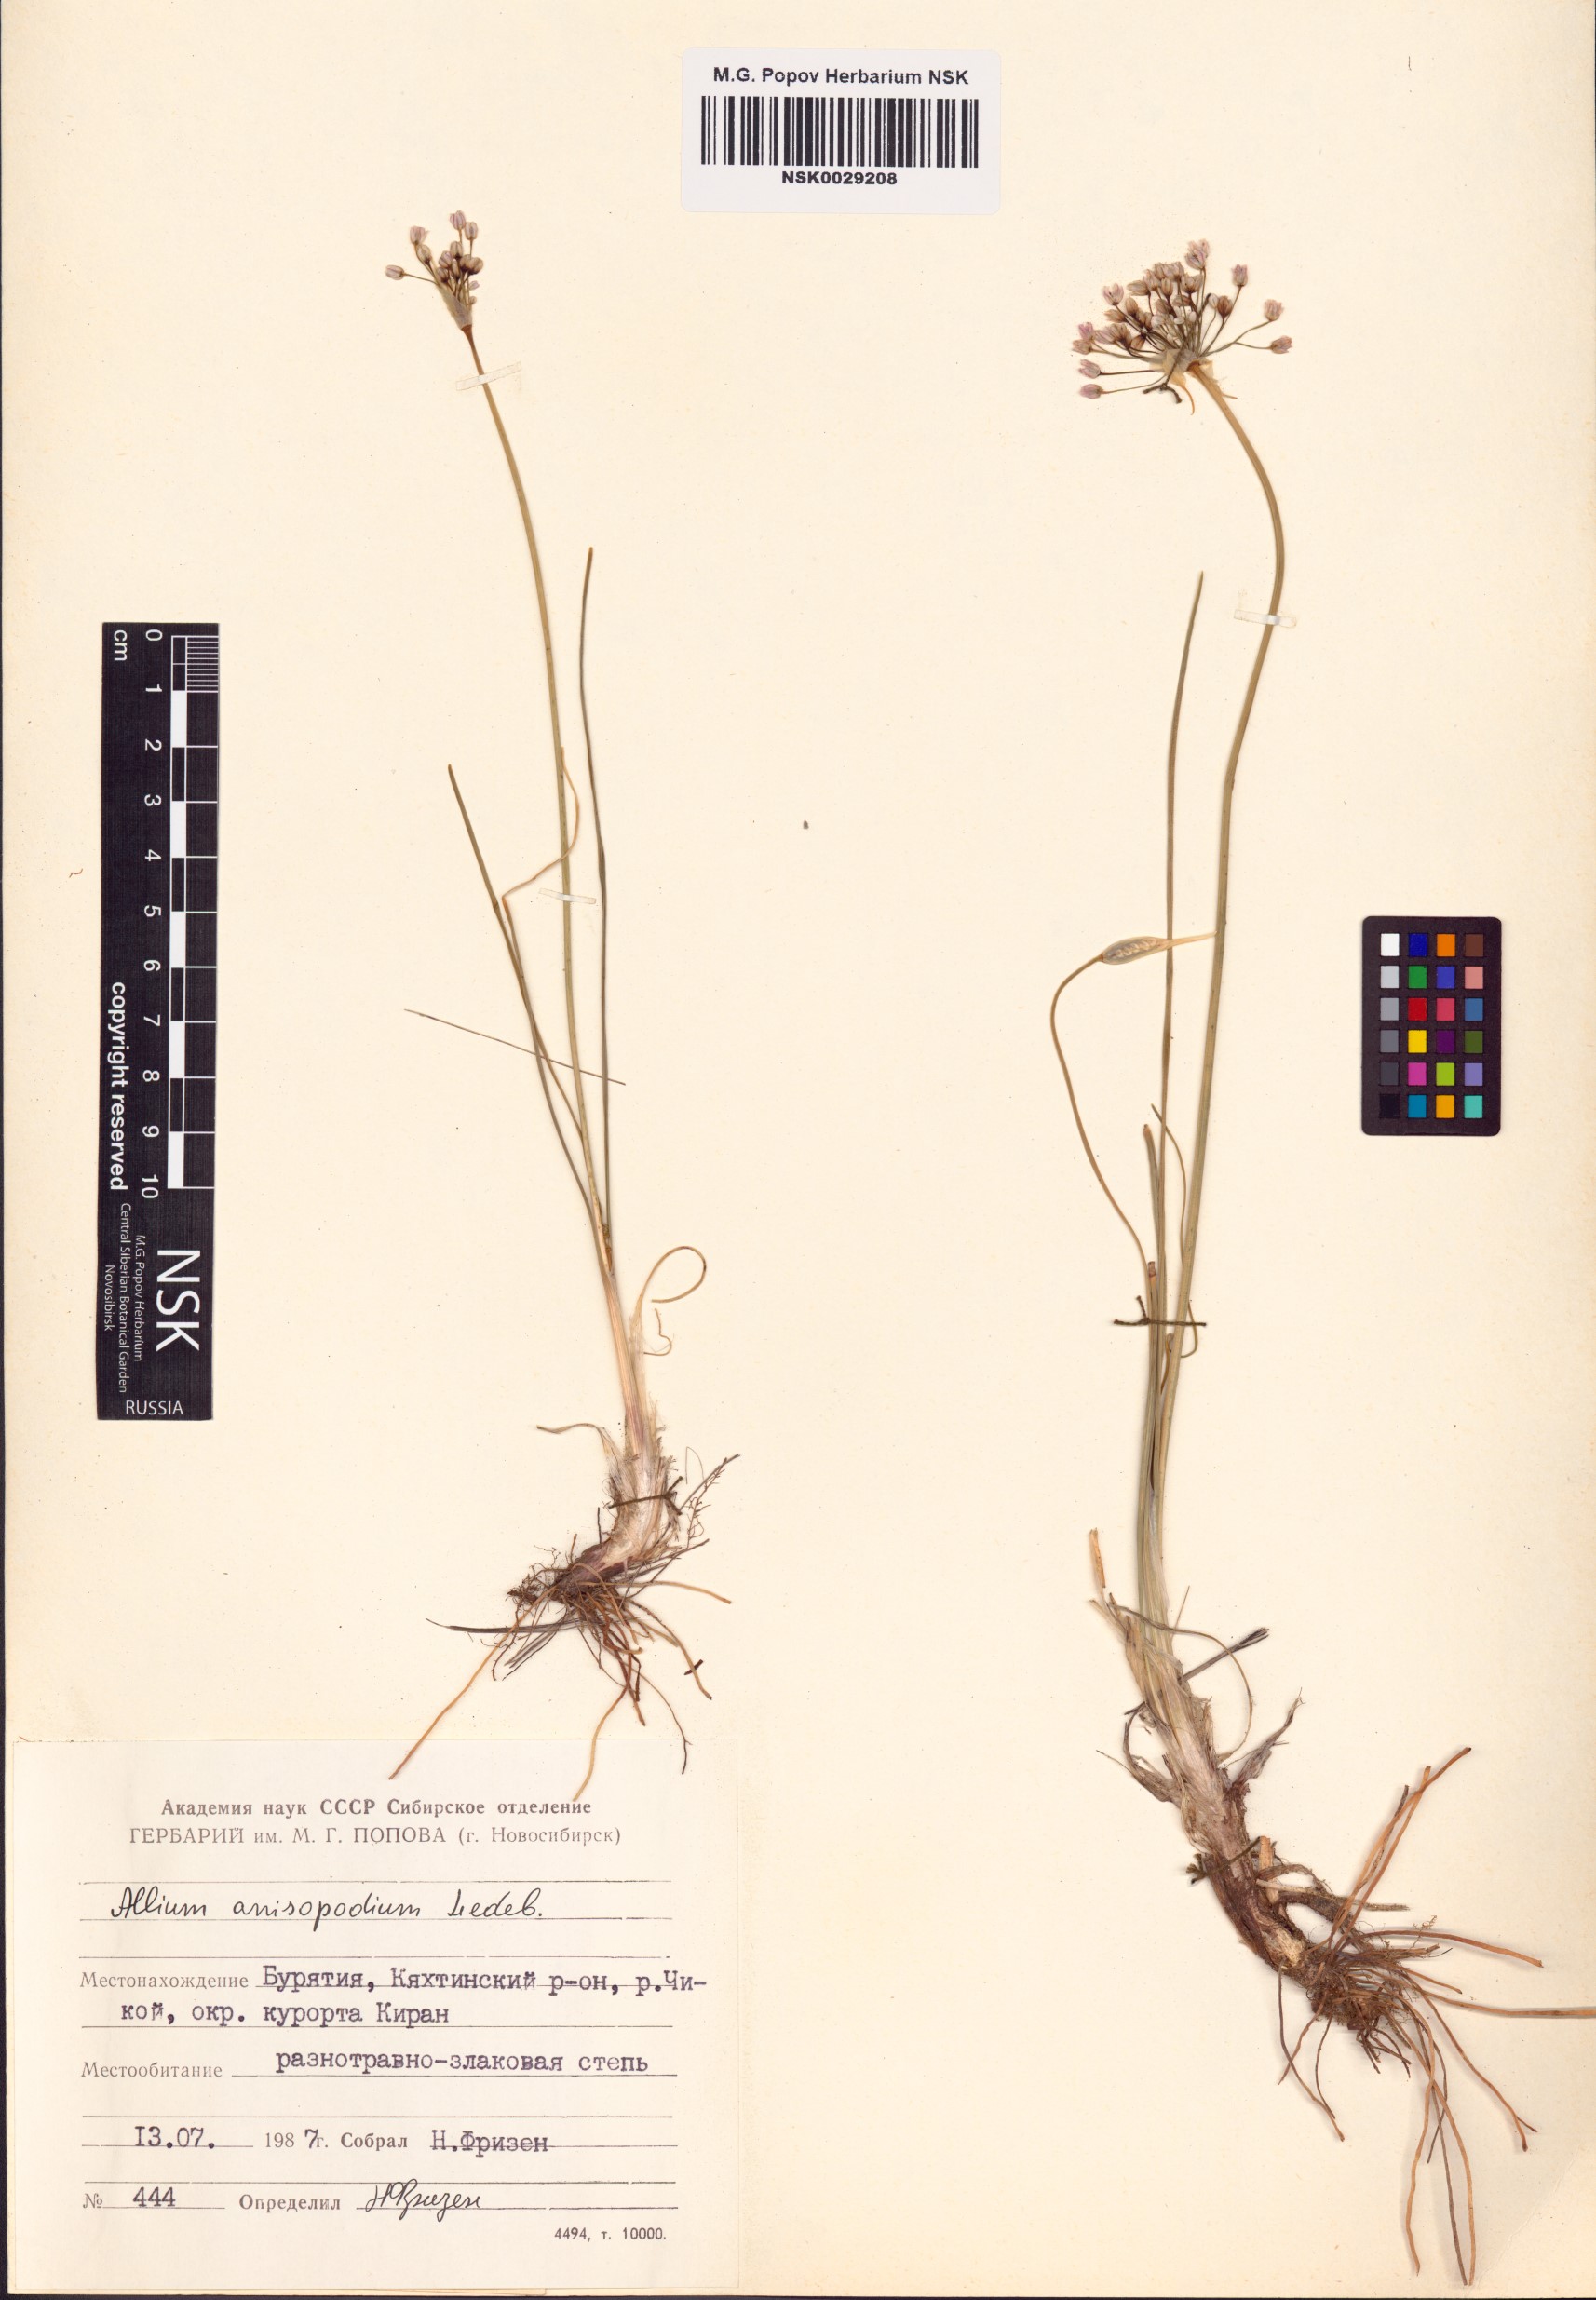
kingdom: Plantae
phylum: Tracheophyta
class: Liliopsida
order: Asparagales
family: Amaryllidaceae
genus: Allium
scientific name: Allium anisopodium
